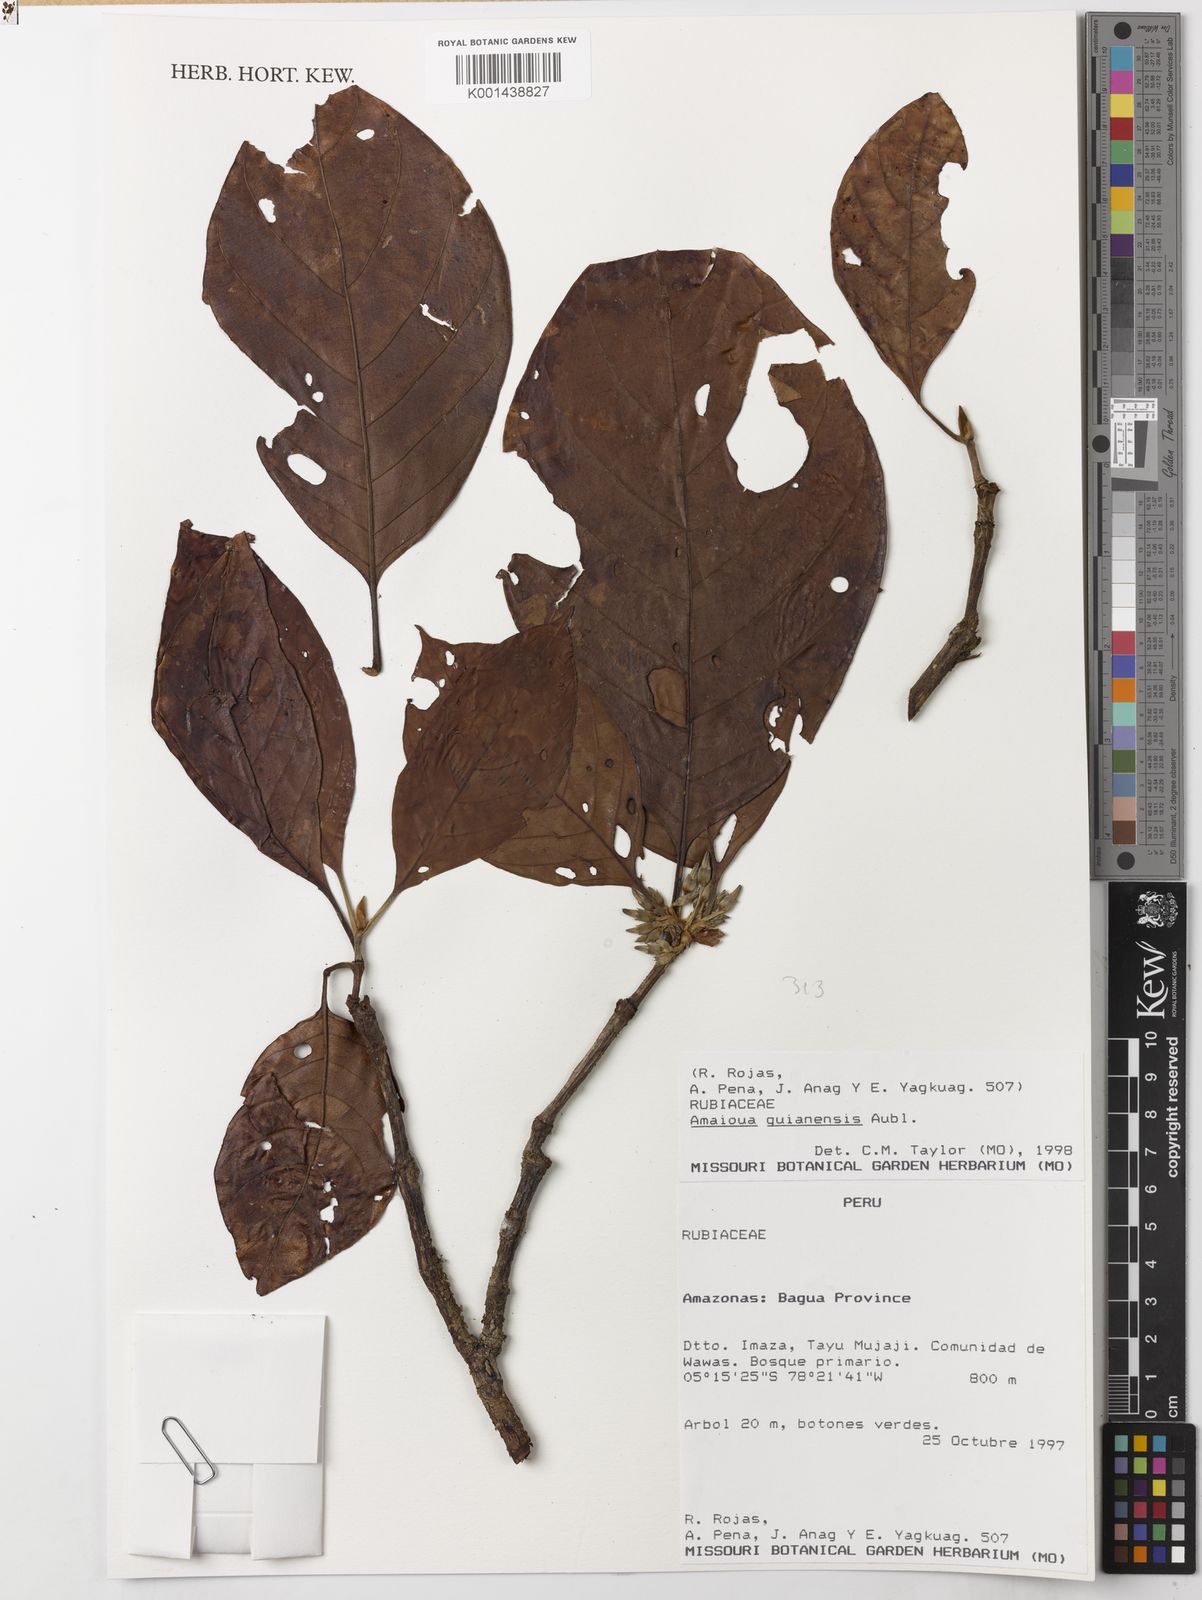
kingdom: Plantae
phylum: Tracheophyta
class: Magnoliopsida
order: Gentianales
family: Rubiaceae
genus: Amaioua
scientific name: Amaioua guianensis
